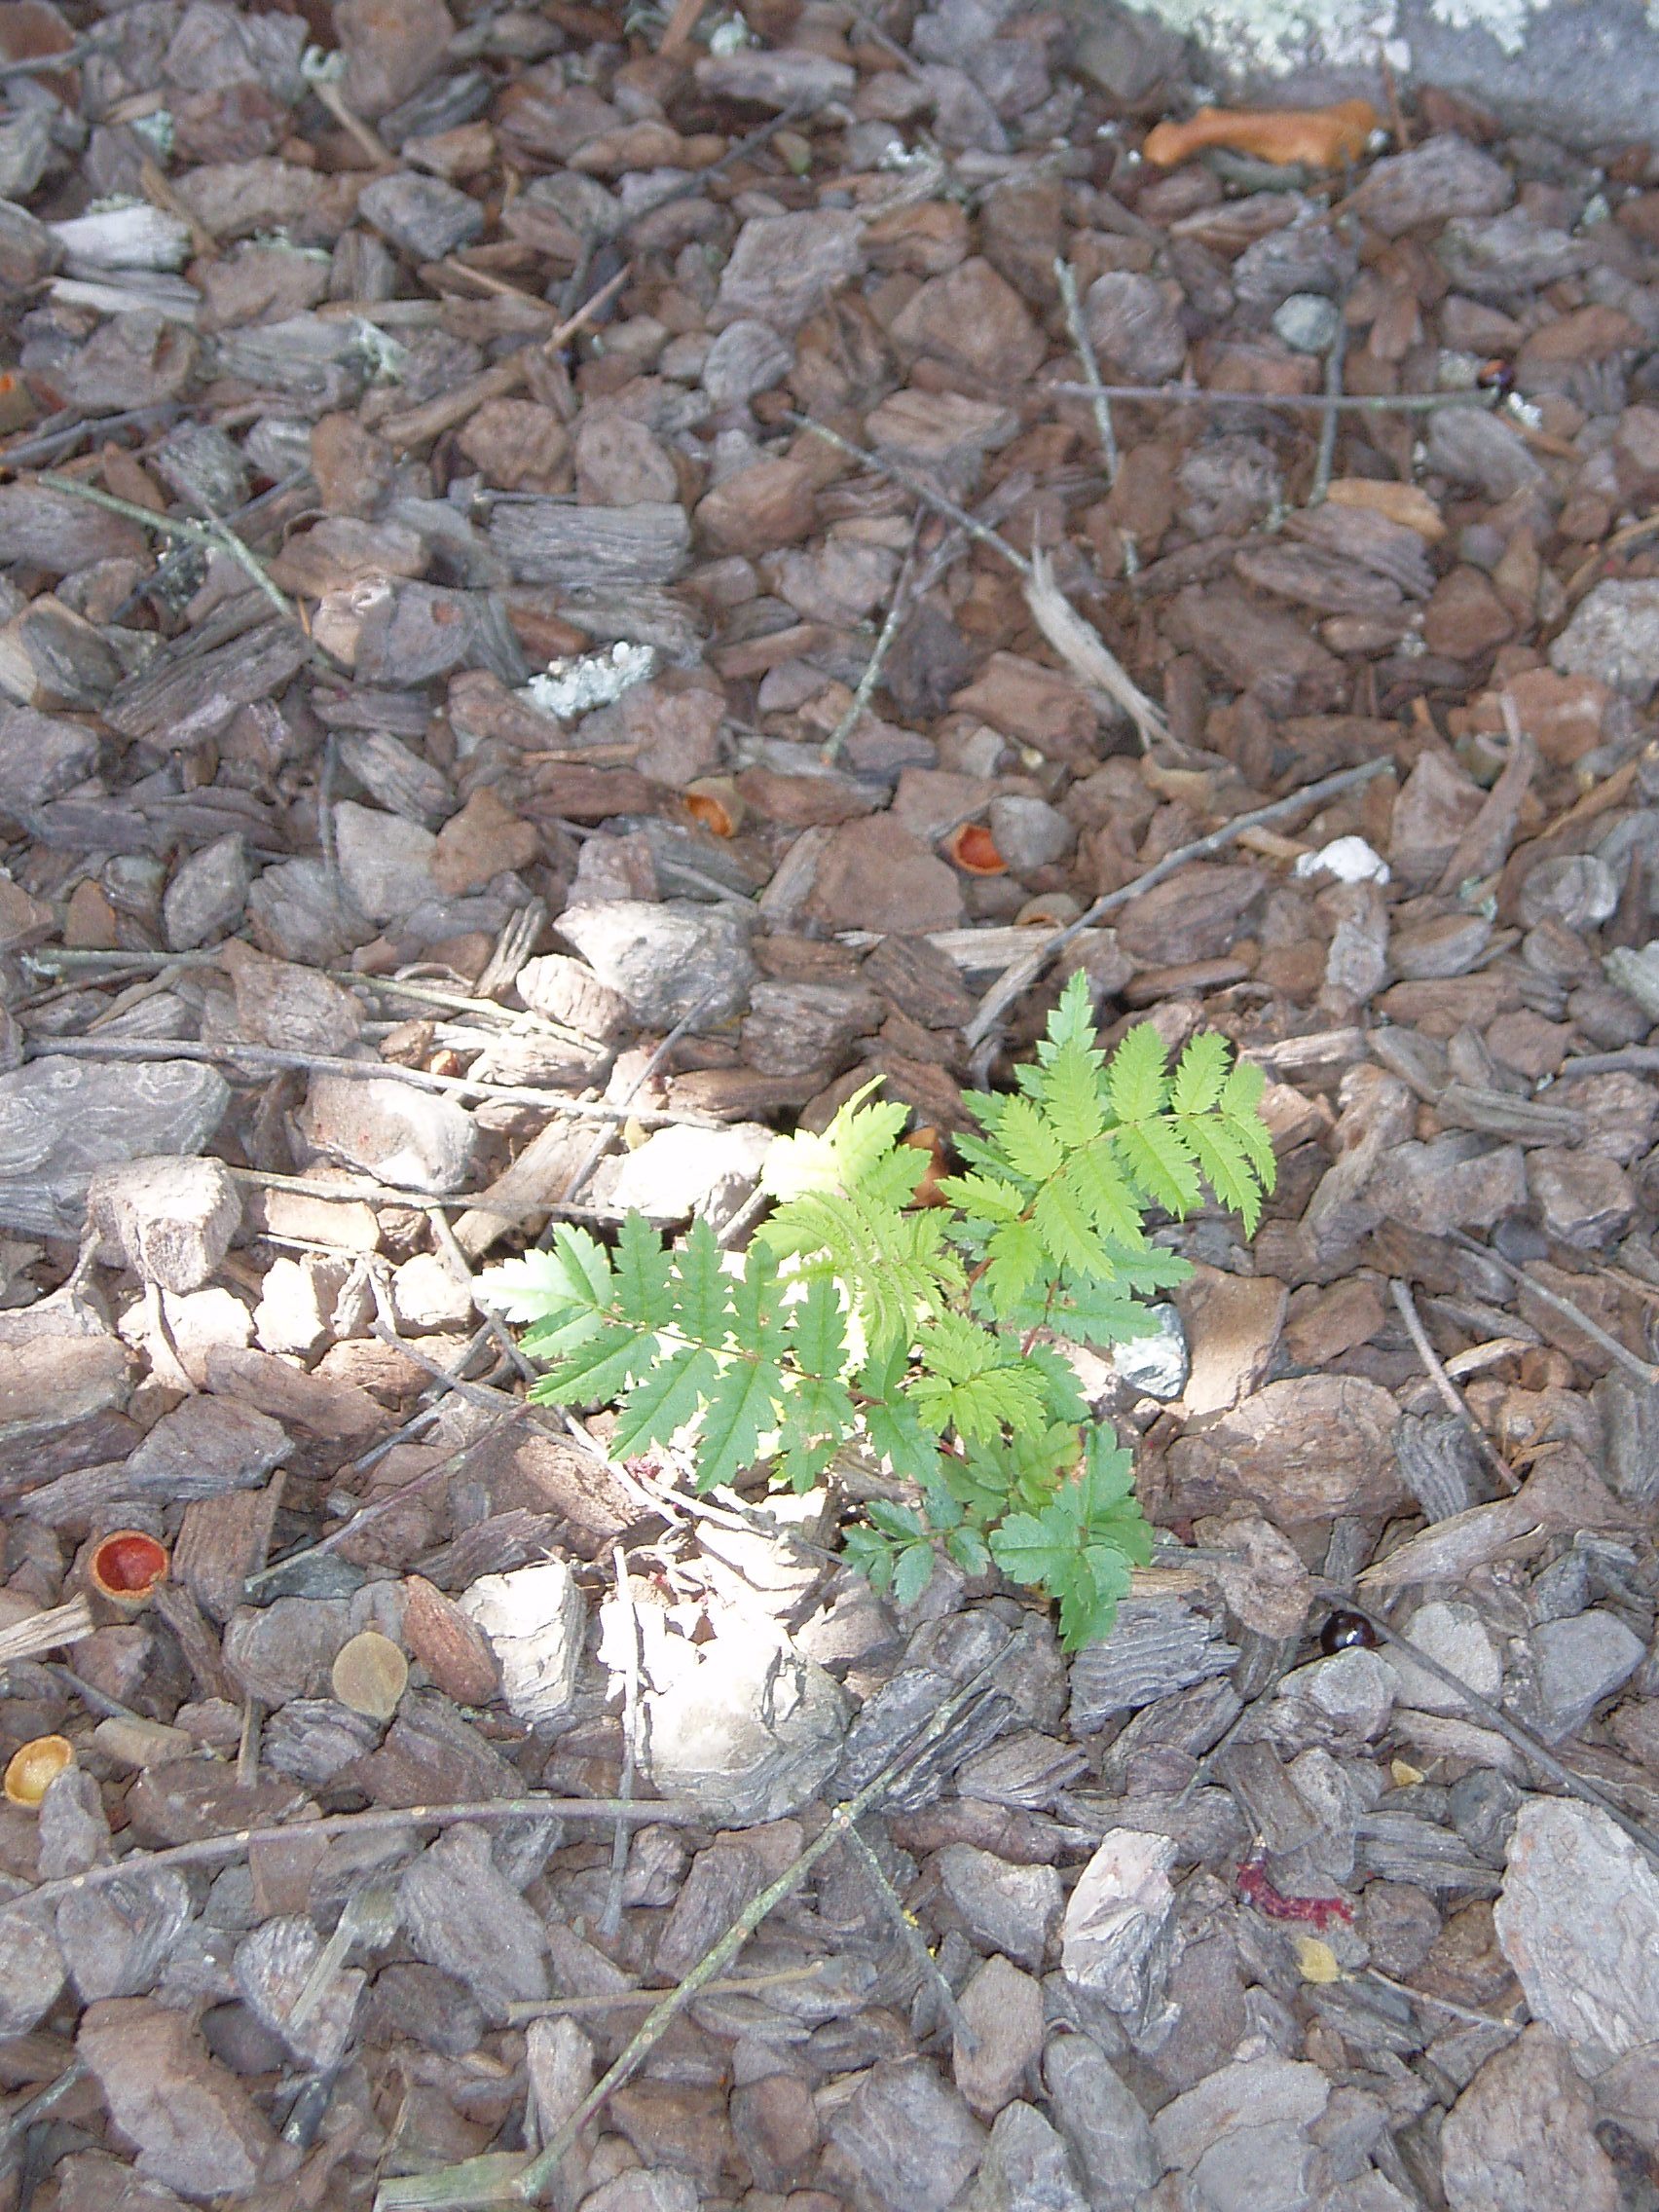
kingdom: Plantae
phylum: Tracheophyta
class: Magnoliopsida
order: Rosales
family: Rosaceae
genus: Sorbus
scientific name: Sorbus aucuparia
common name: Rowan
